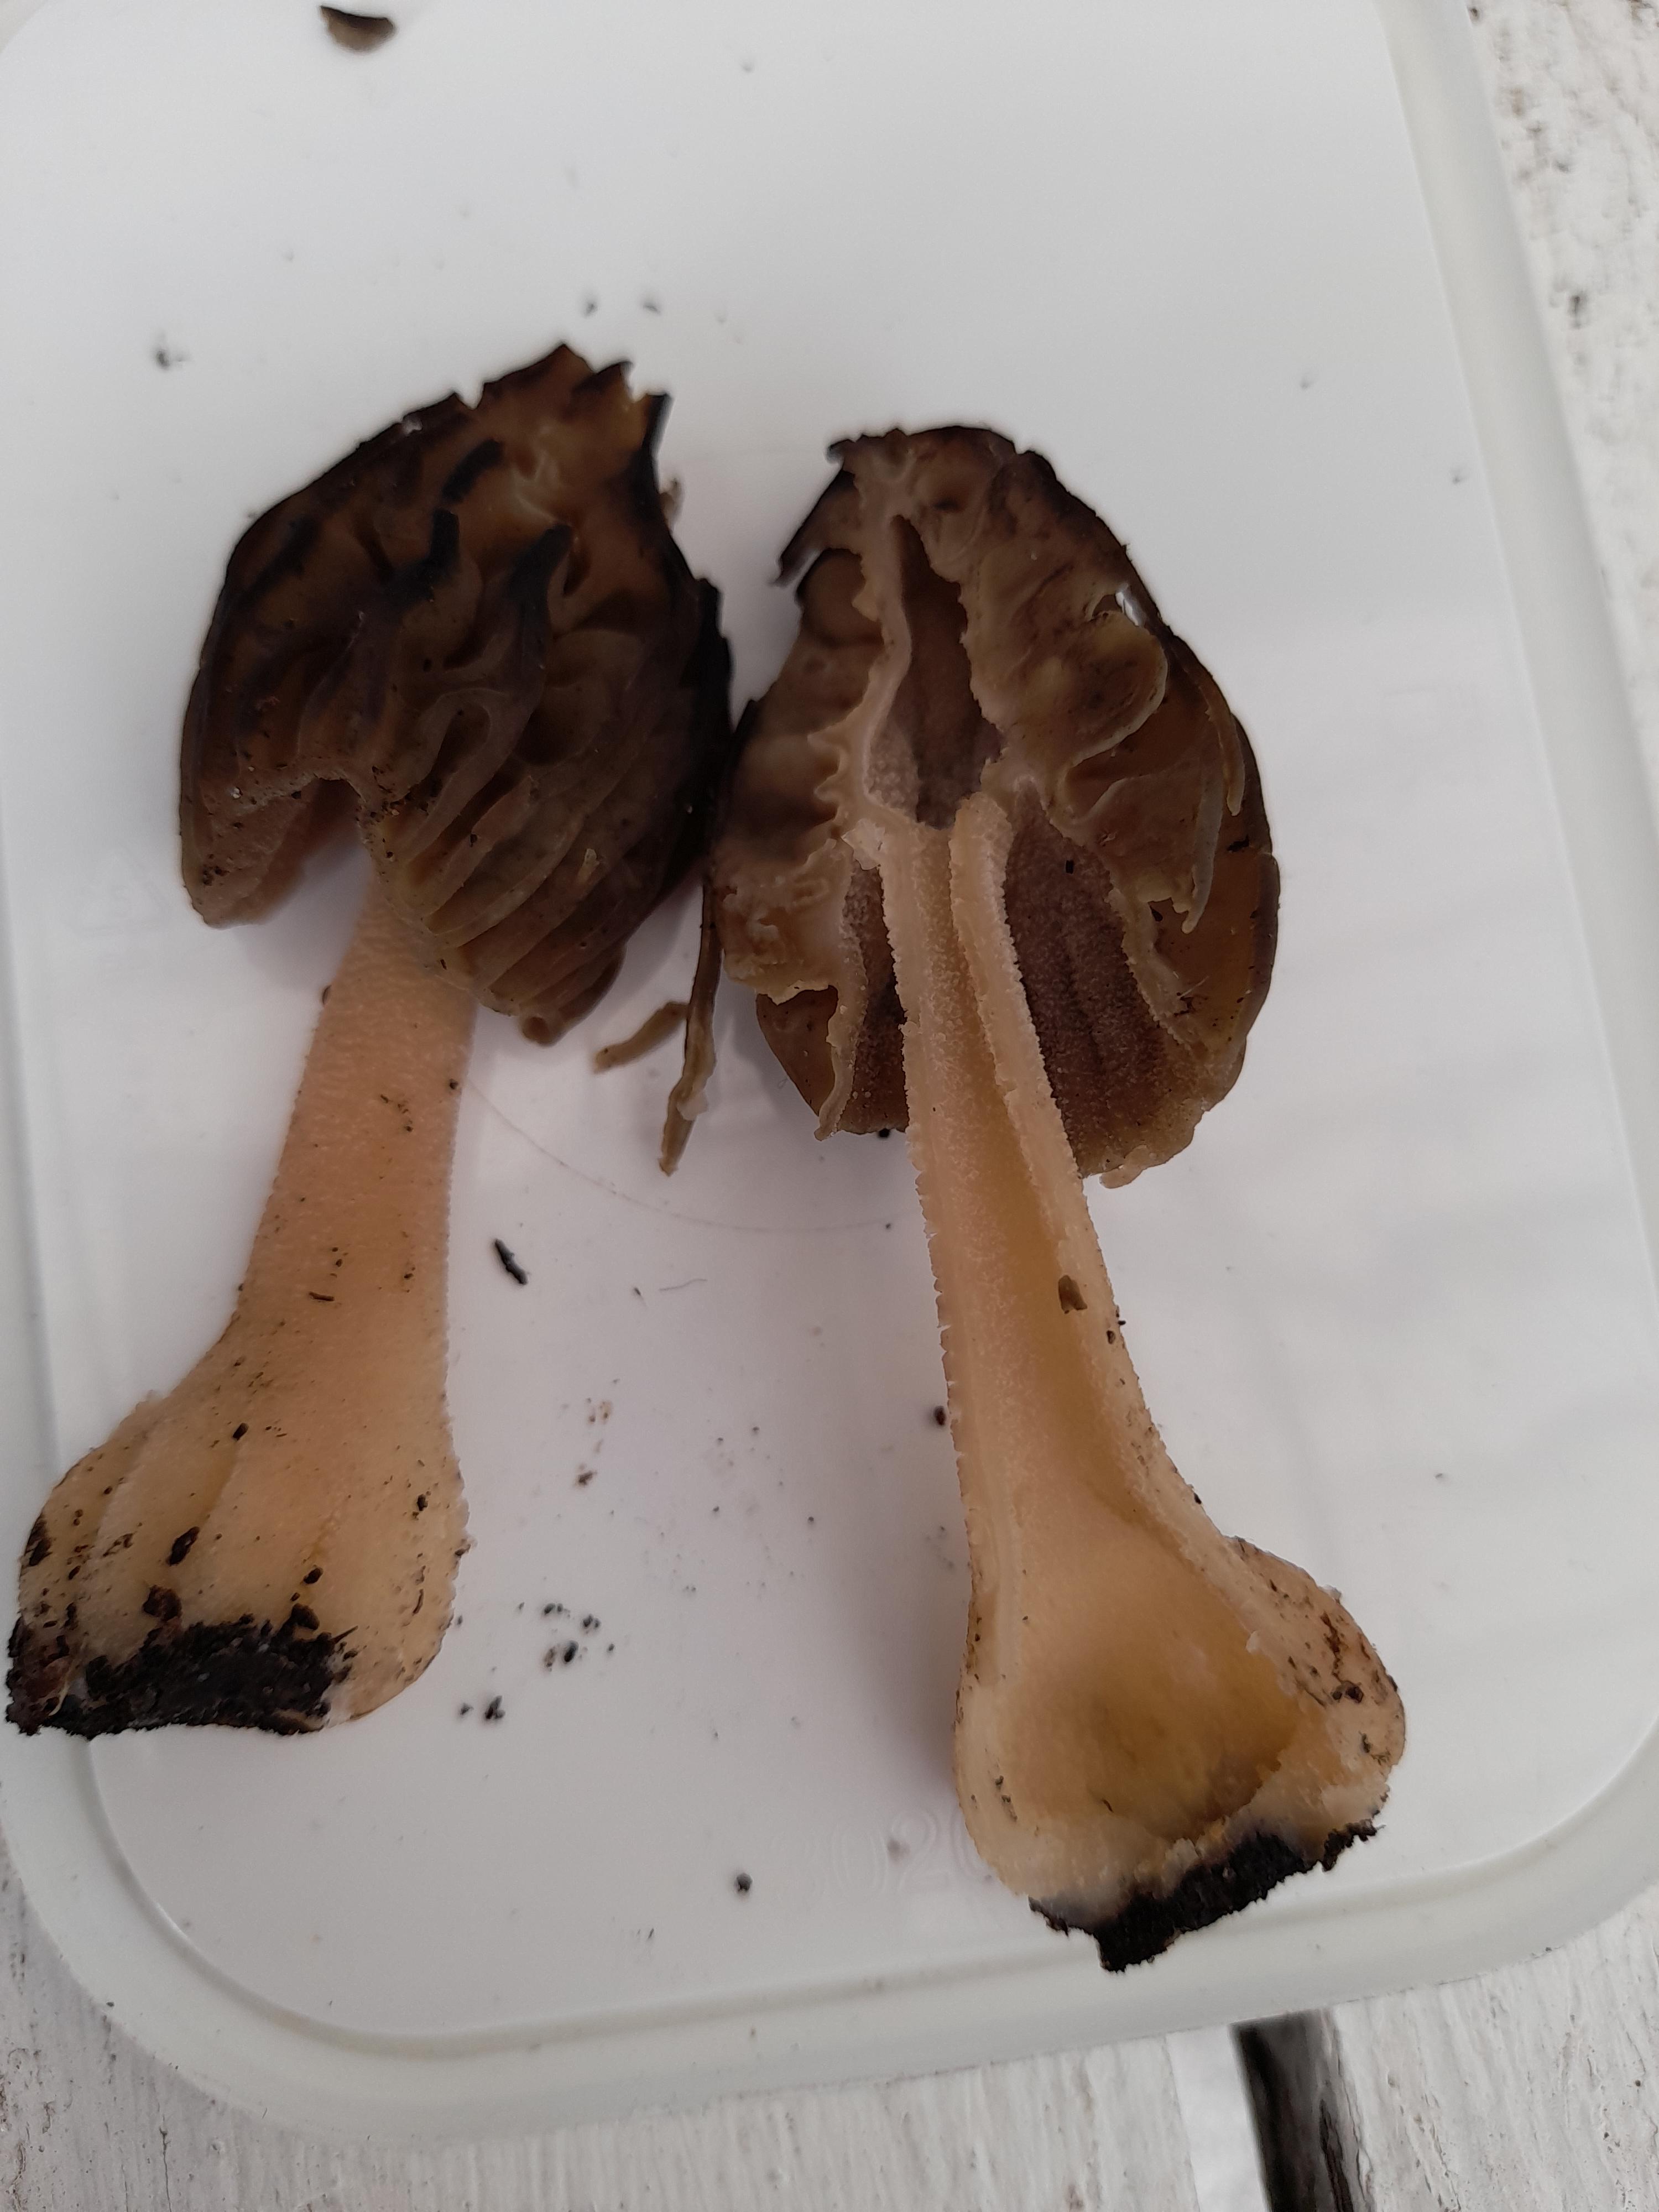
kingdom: Fungi
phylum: Ascomycota
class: Pezizomycetes
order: Pezizales
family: Morchellaceae
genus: Morchella
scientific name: Morchella semilibera
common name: hætte-morkel
